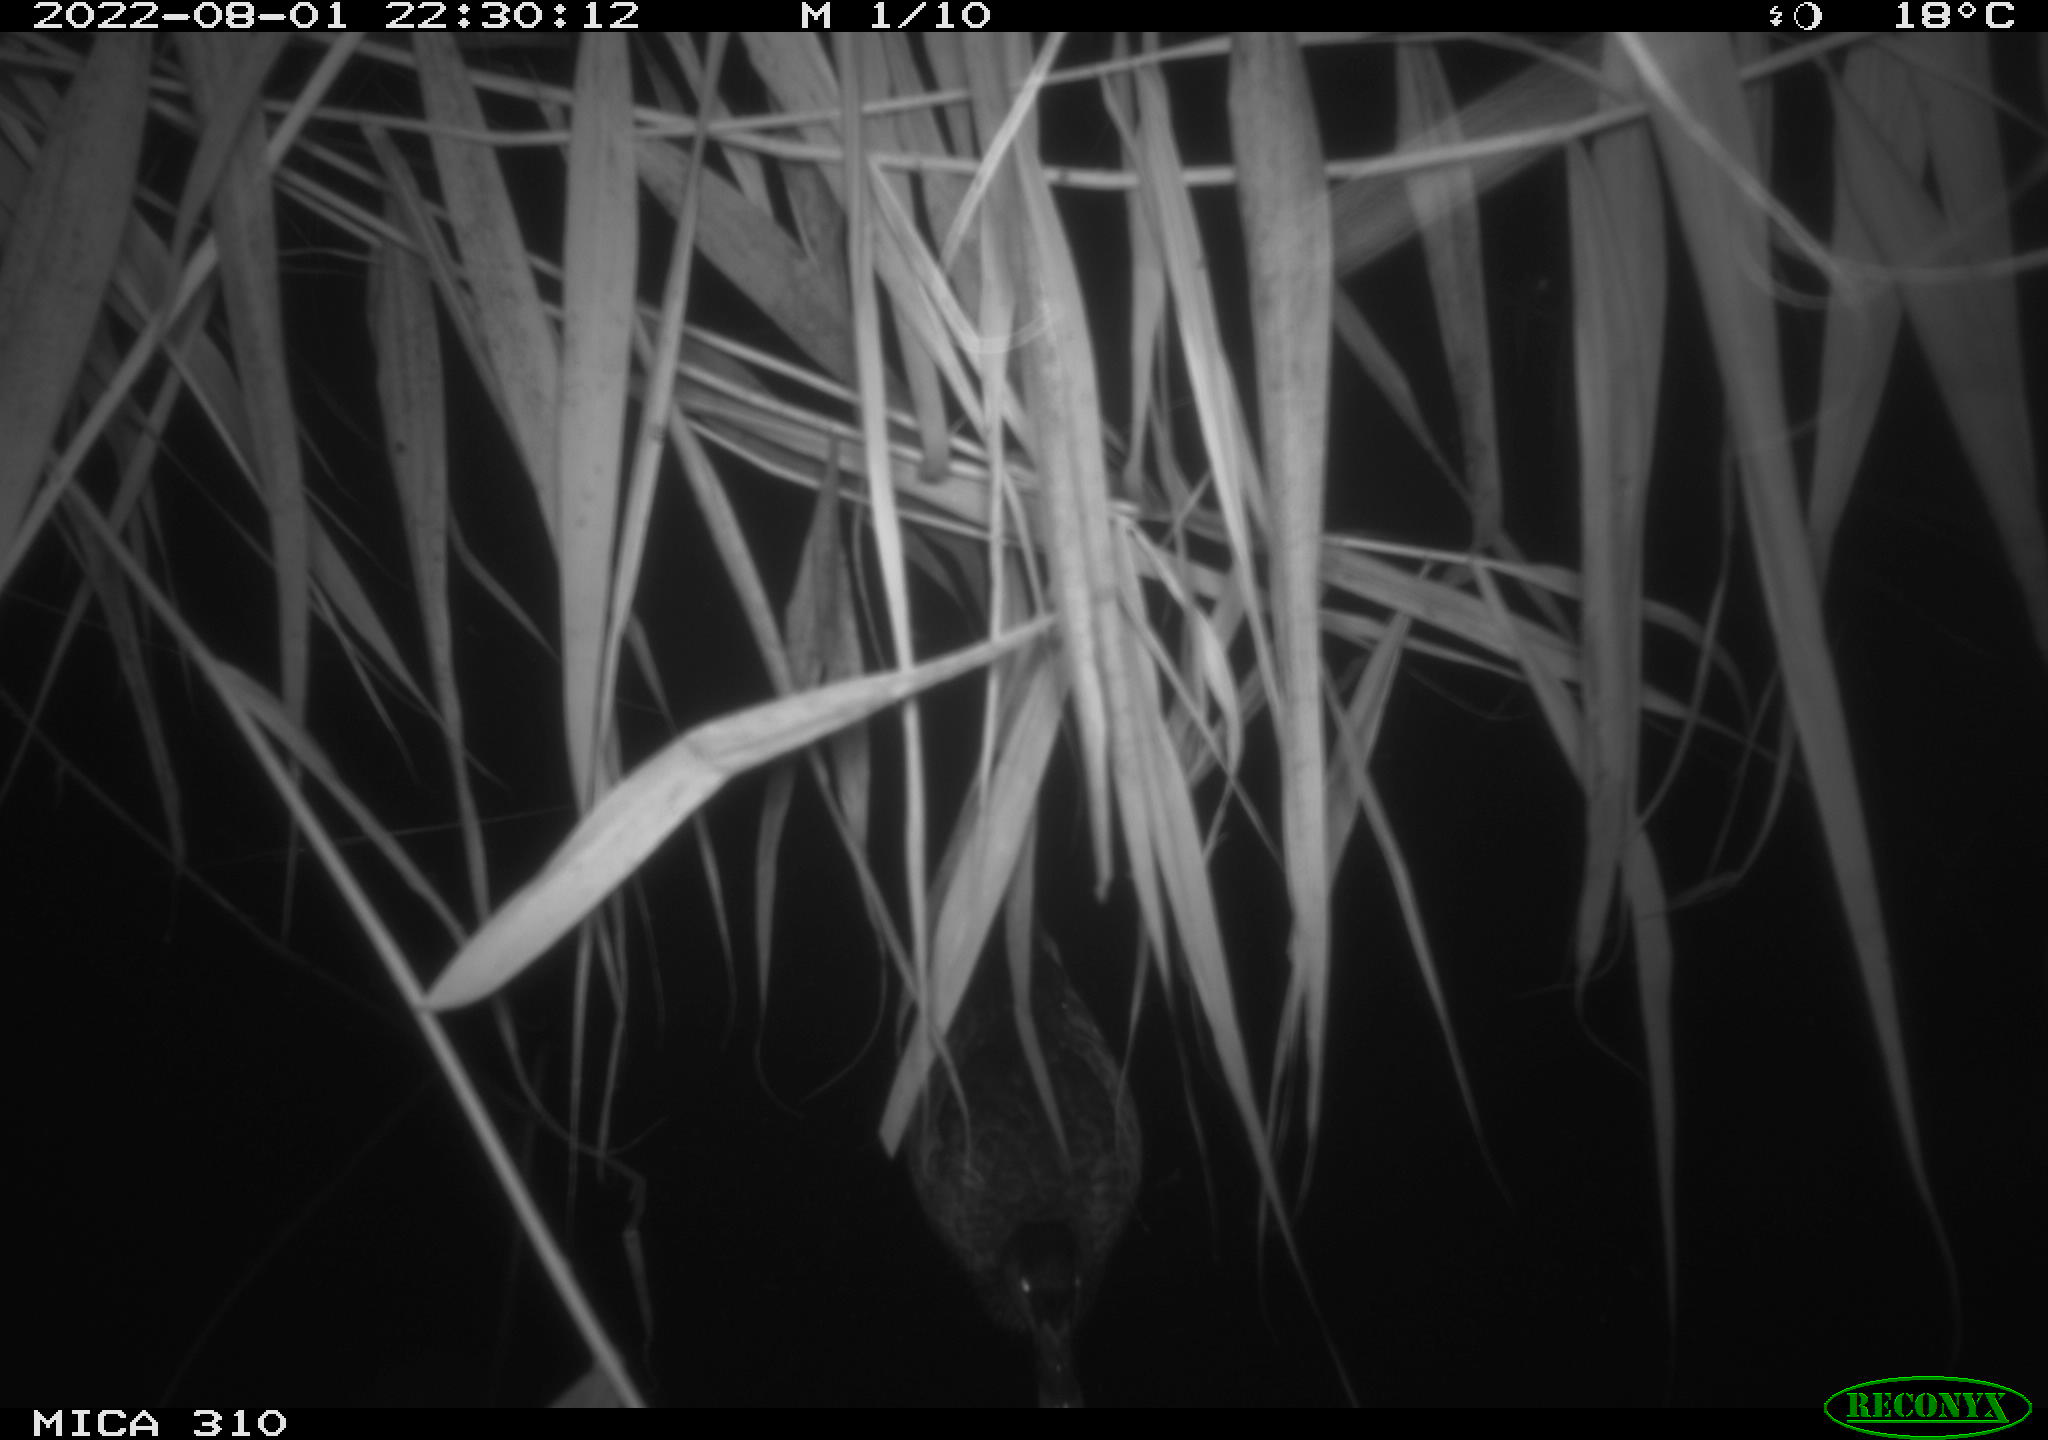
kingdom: Animalia
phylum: Chordata
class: Aves
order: Anseriformes
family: Anatidae
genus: Anas
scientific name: Anas platyrhynchos
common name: Mallard
